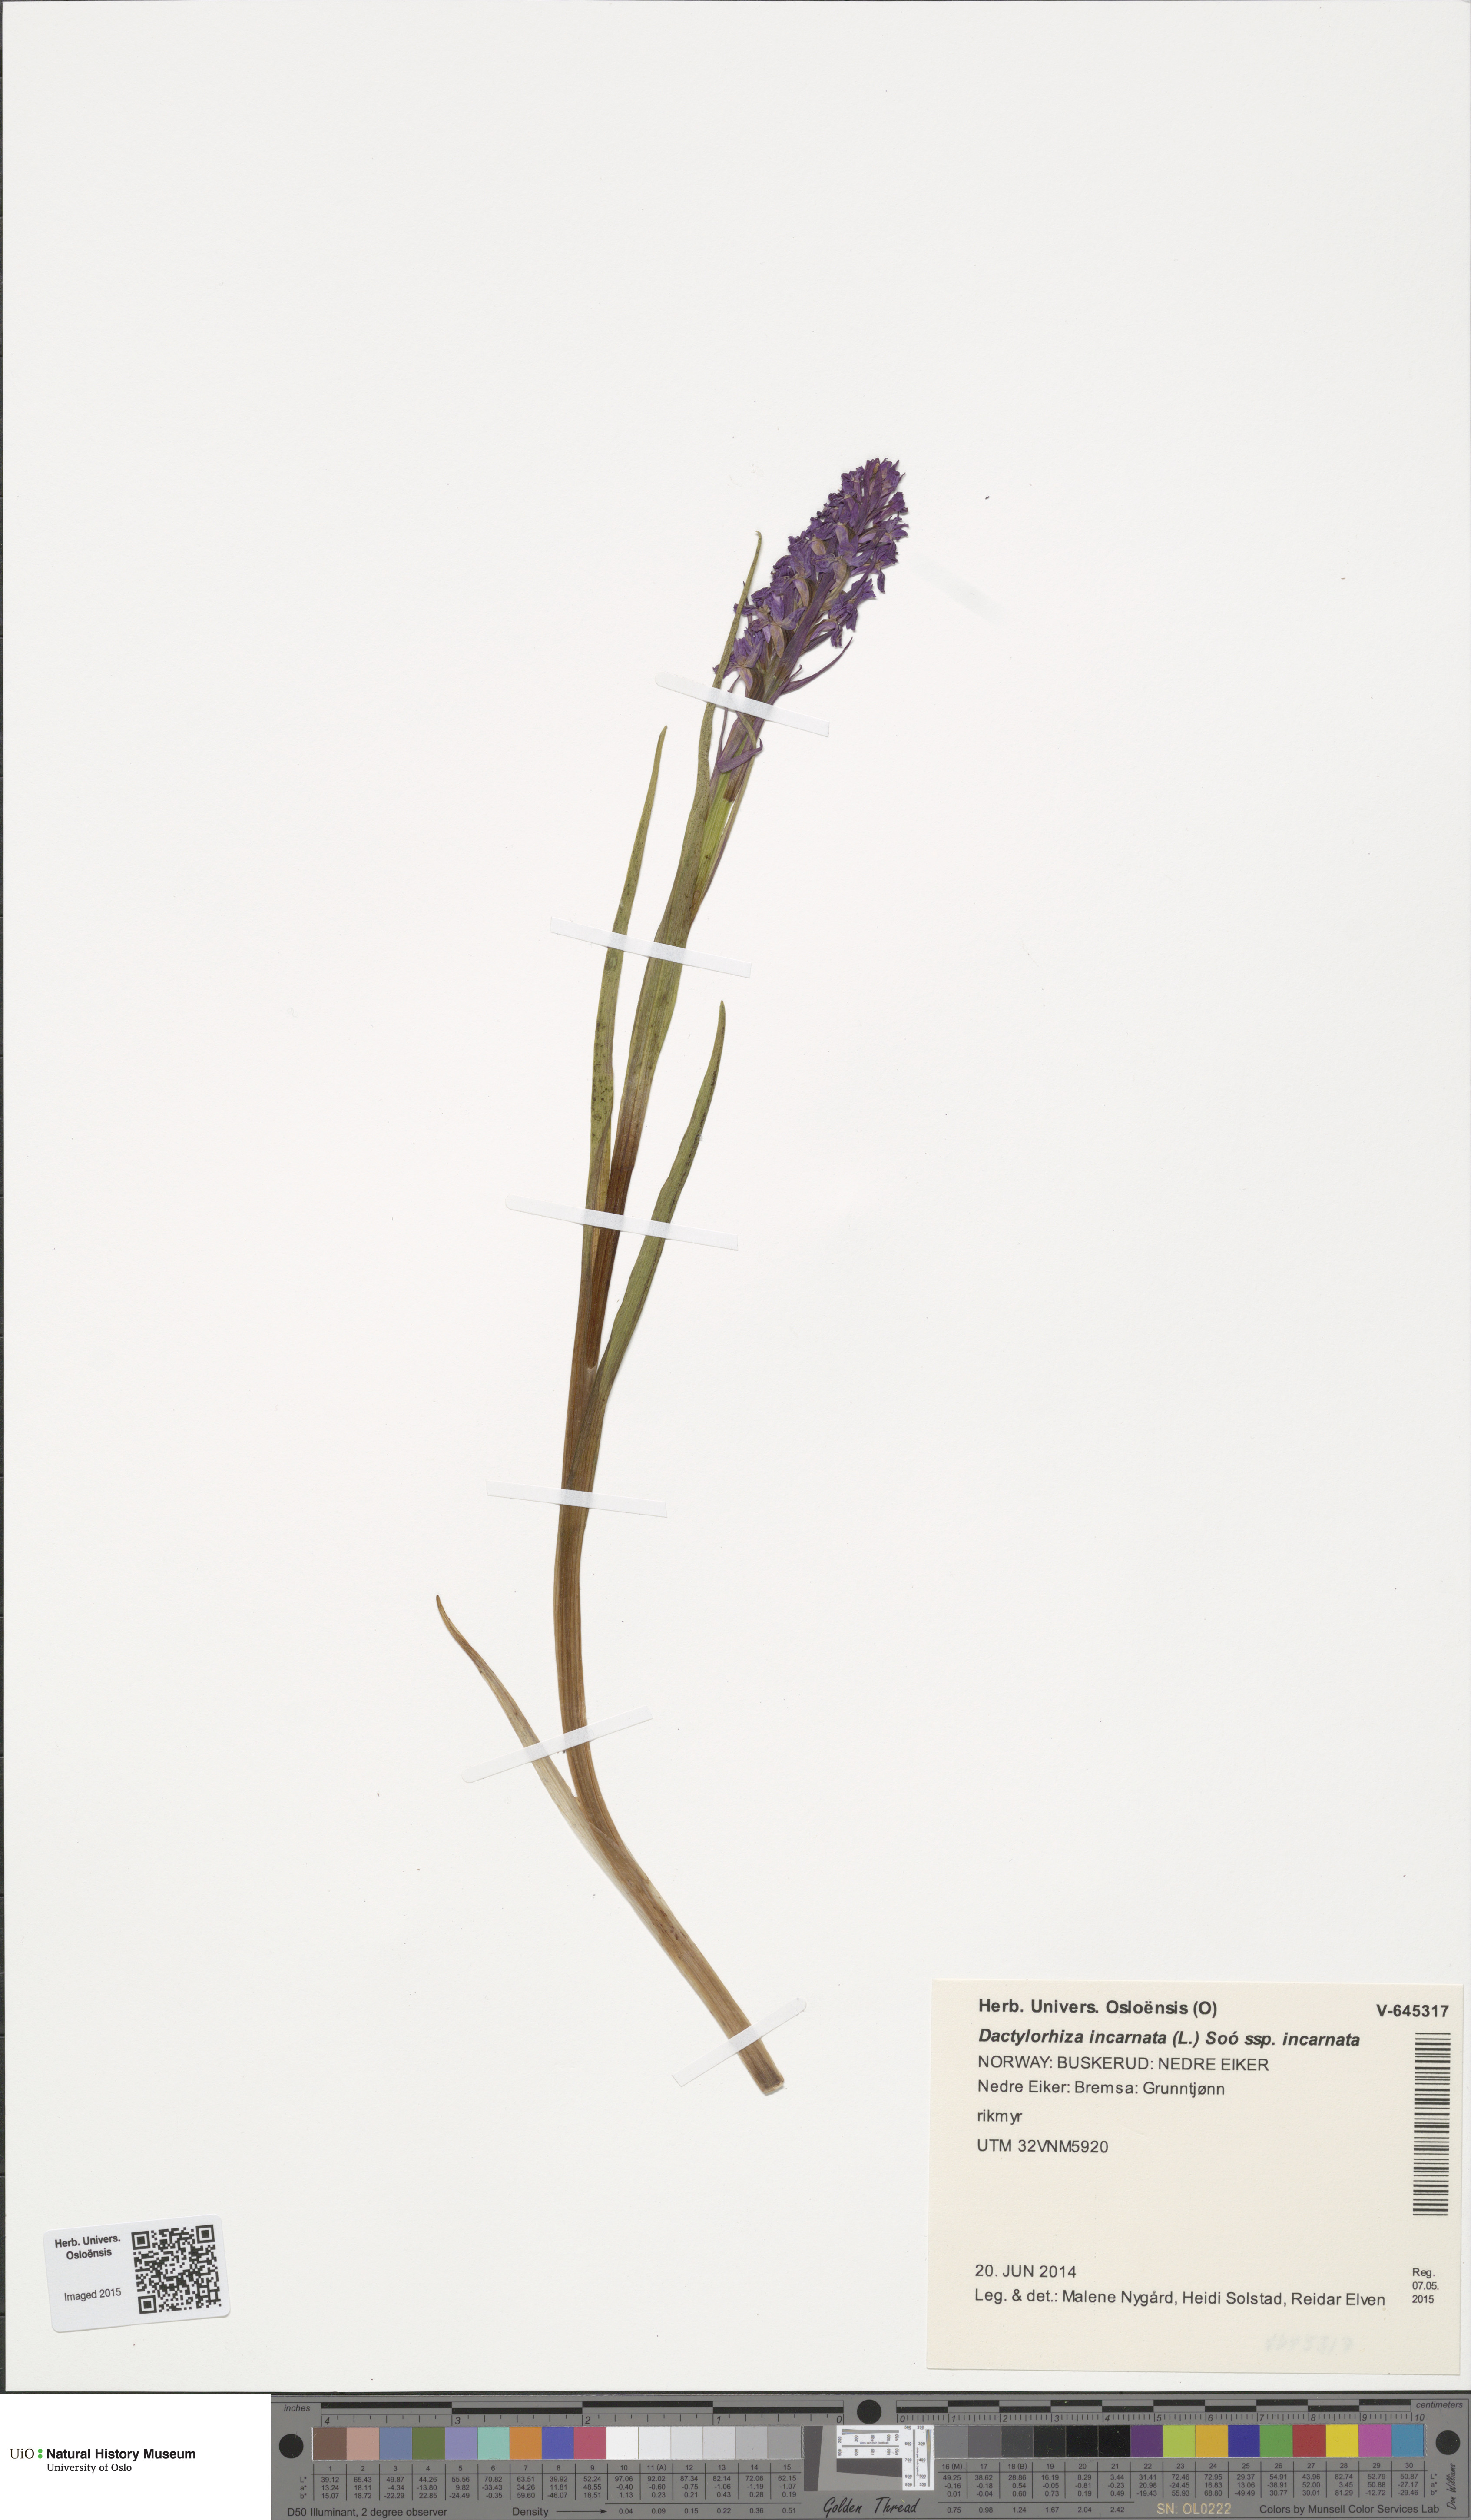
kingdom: Plantae
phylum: Tracheophyta
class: Liliopsida
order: Asparagales
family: Orchidaceae
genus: Dactylorhiza
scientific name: Dactylorhiza incarnata
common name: Early marsh-orchid
